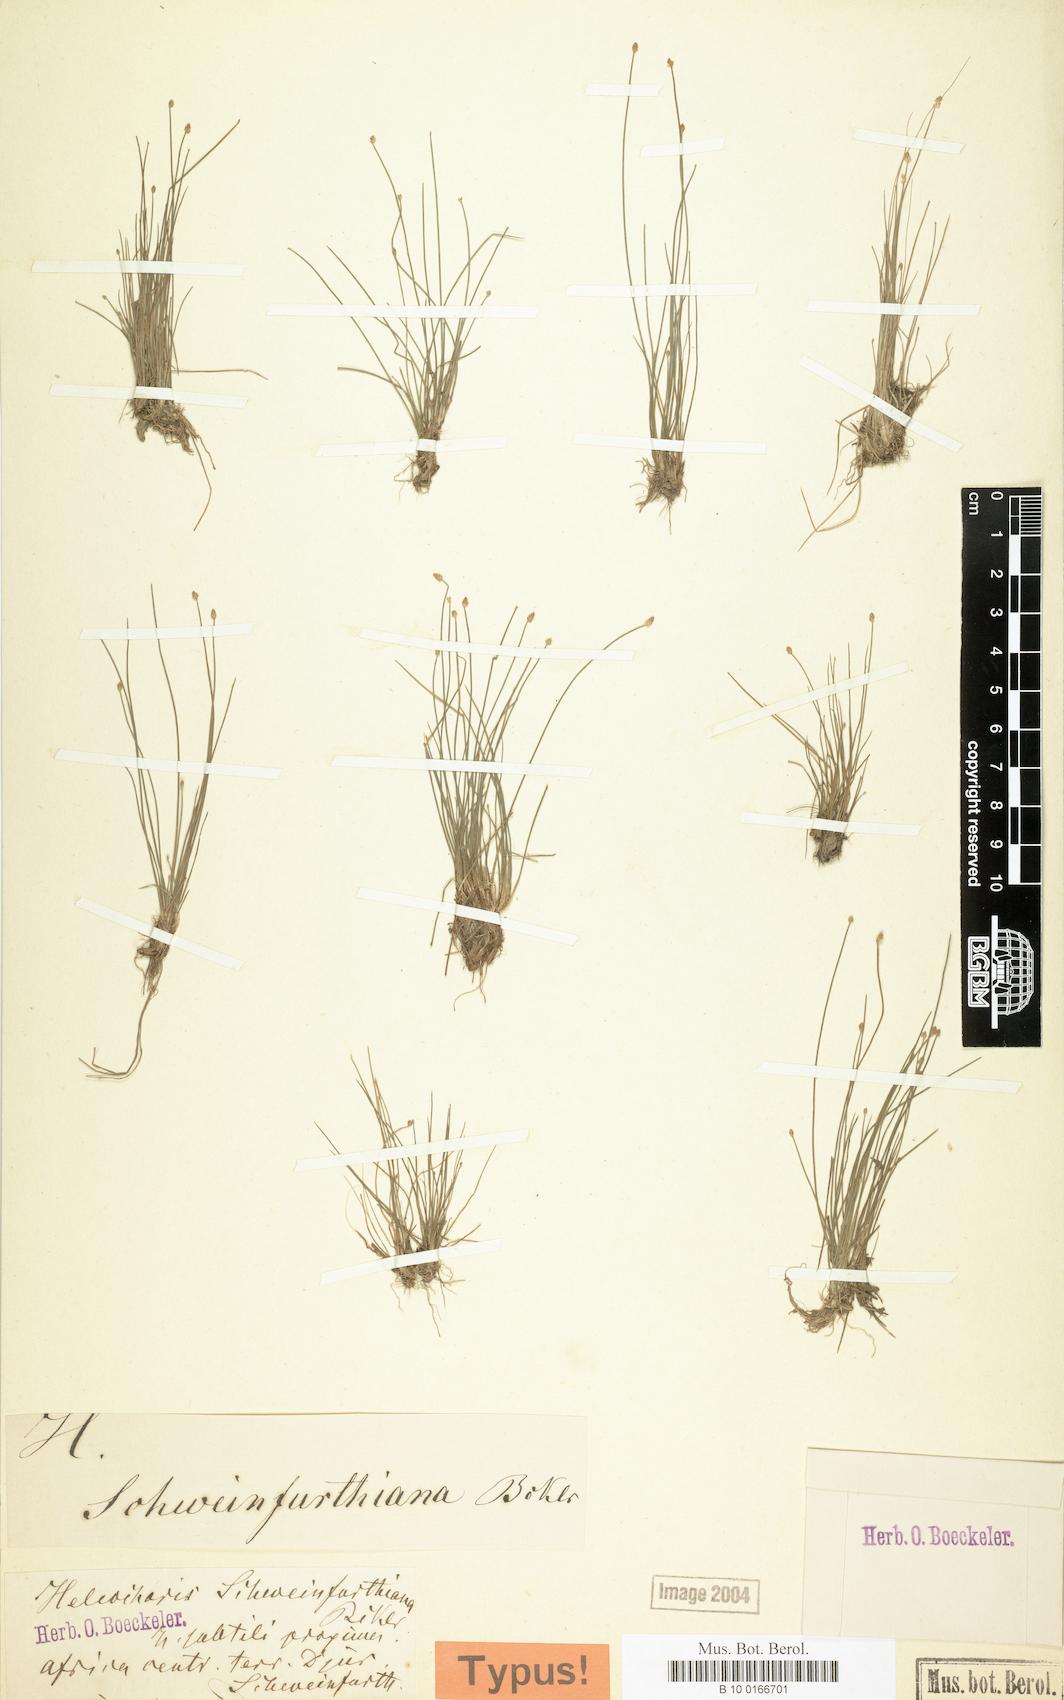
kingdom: Plantae
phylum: Tracheophyta
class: Liliopsida
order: Poales
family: Cyperaceae
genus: Eleocharis
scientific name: Eleocharis microcarpa
